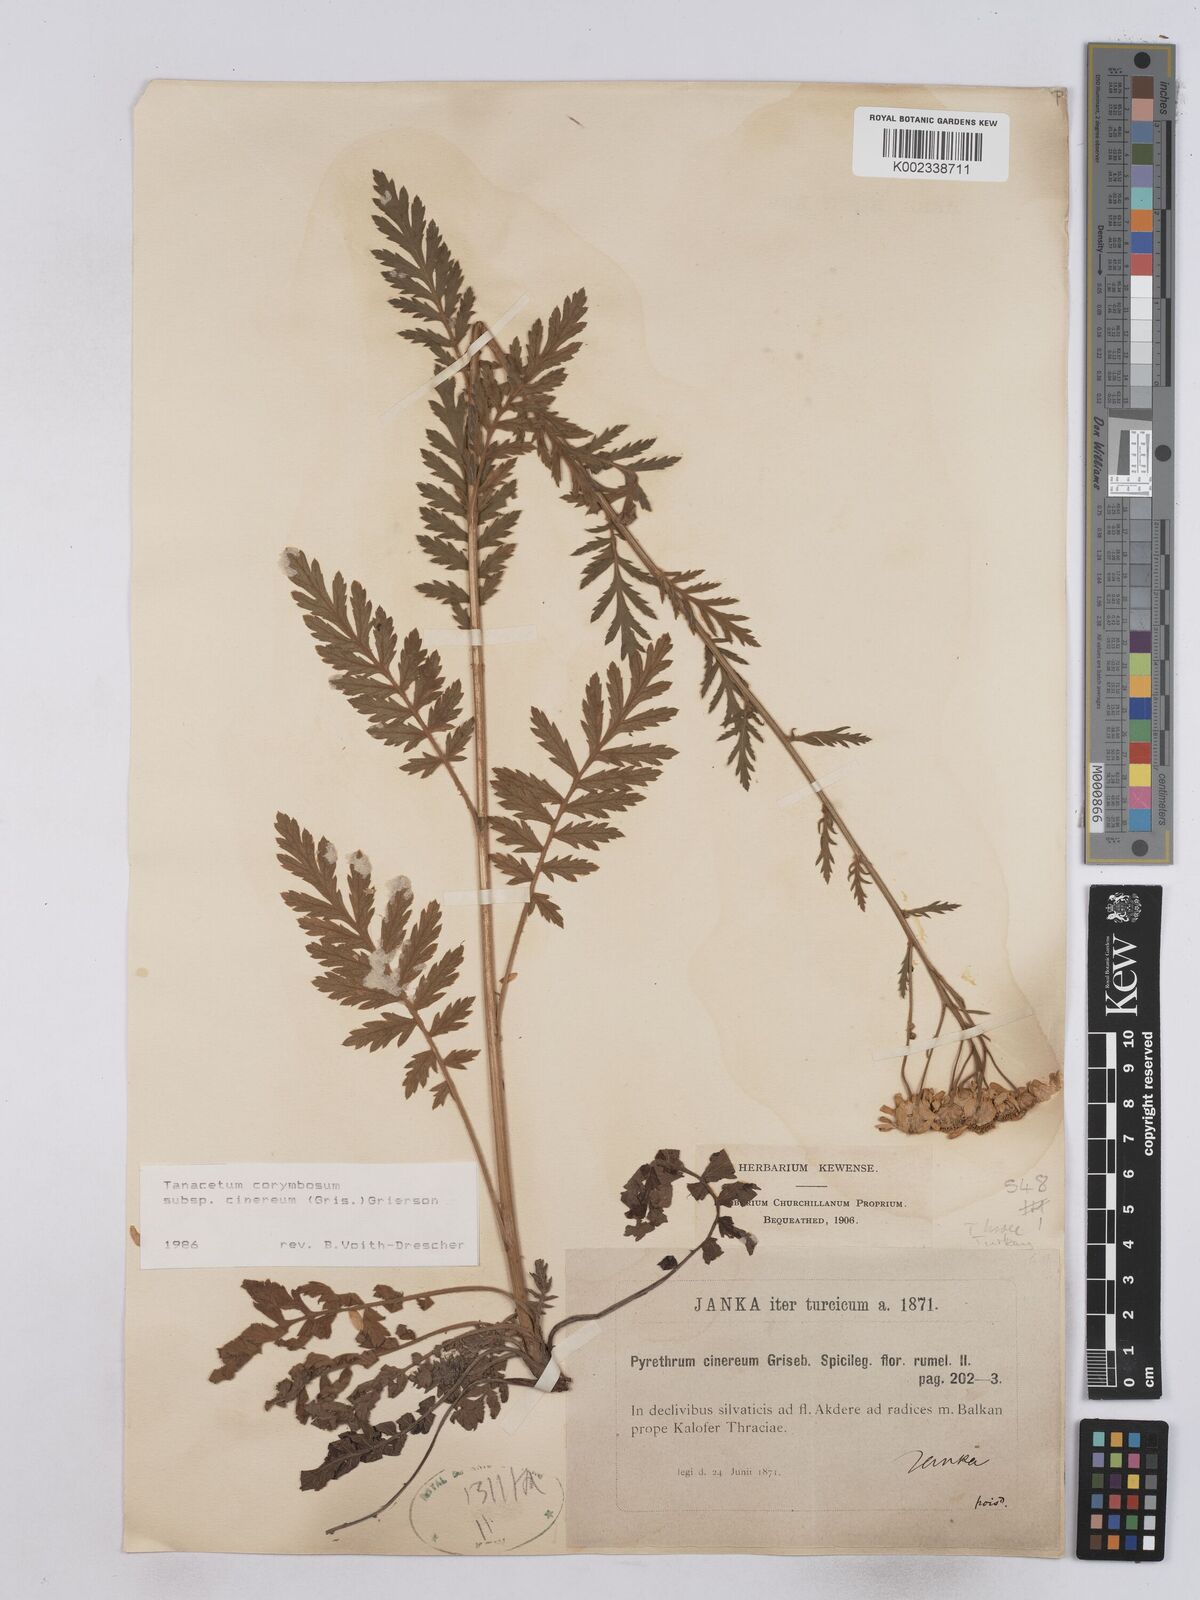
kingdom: Plantae
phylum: Tracheophyta
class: Magnoliopsida
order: Asterales
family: Asteraceae
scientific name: Asteraceae
